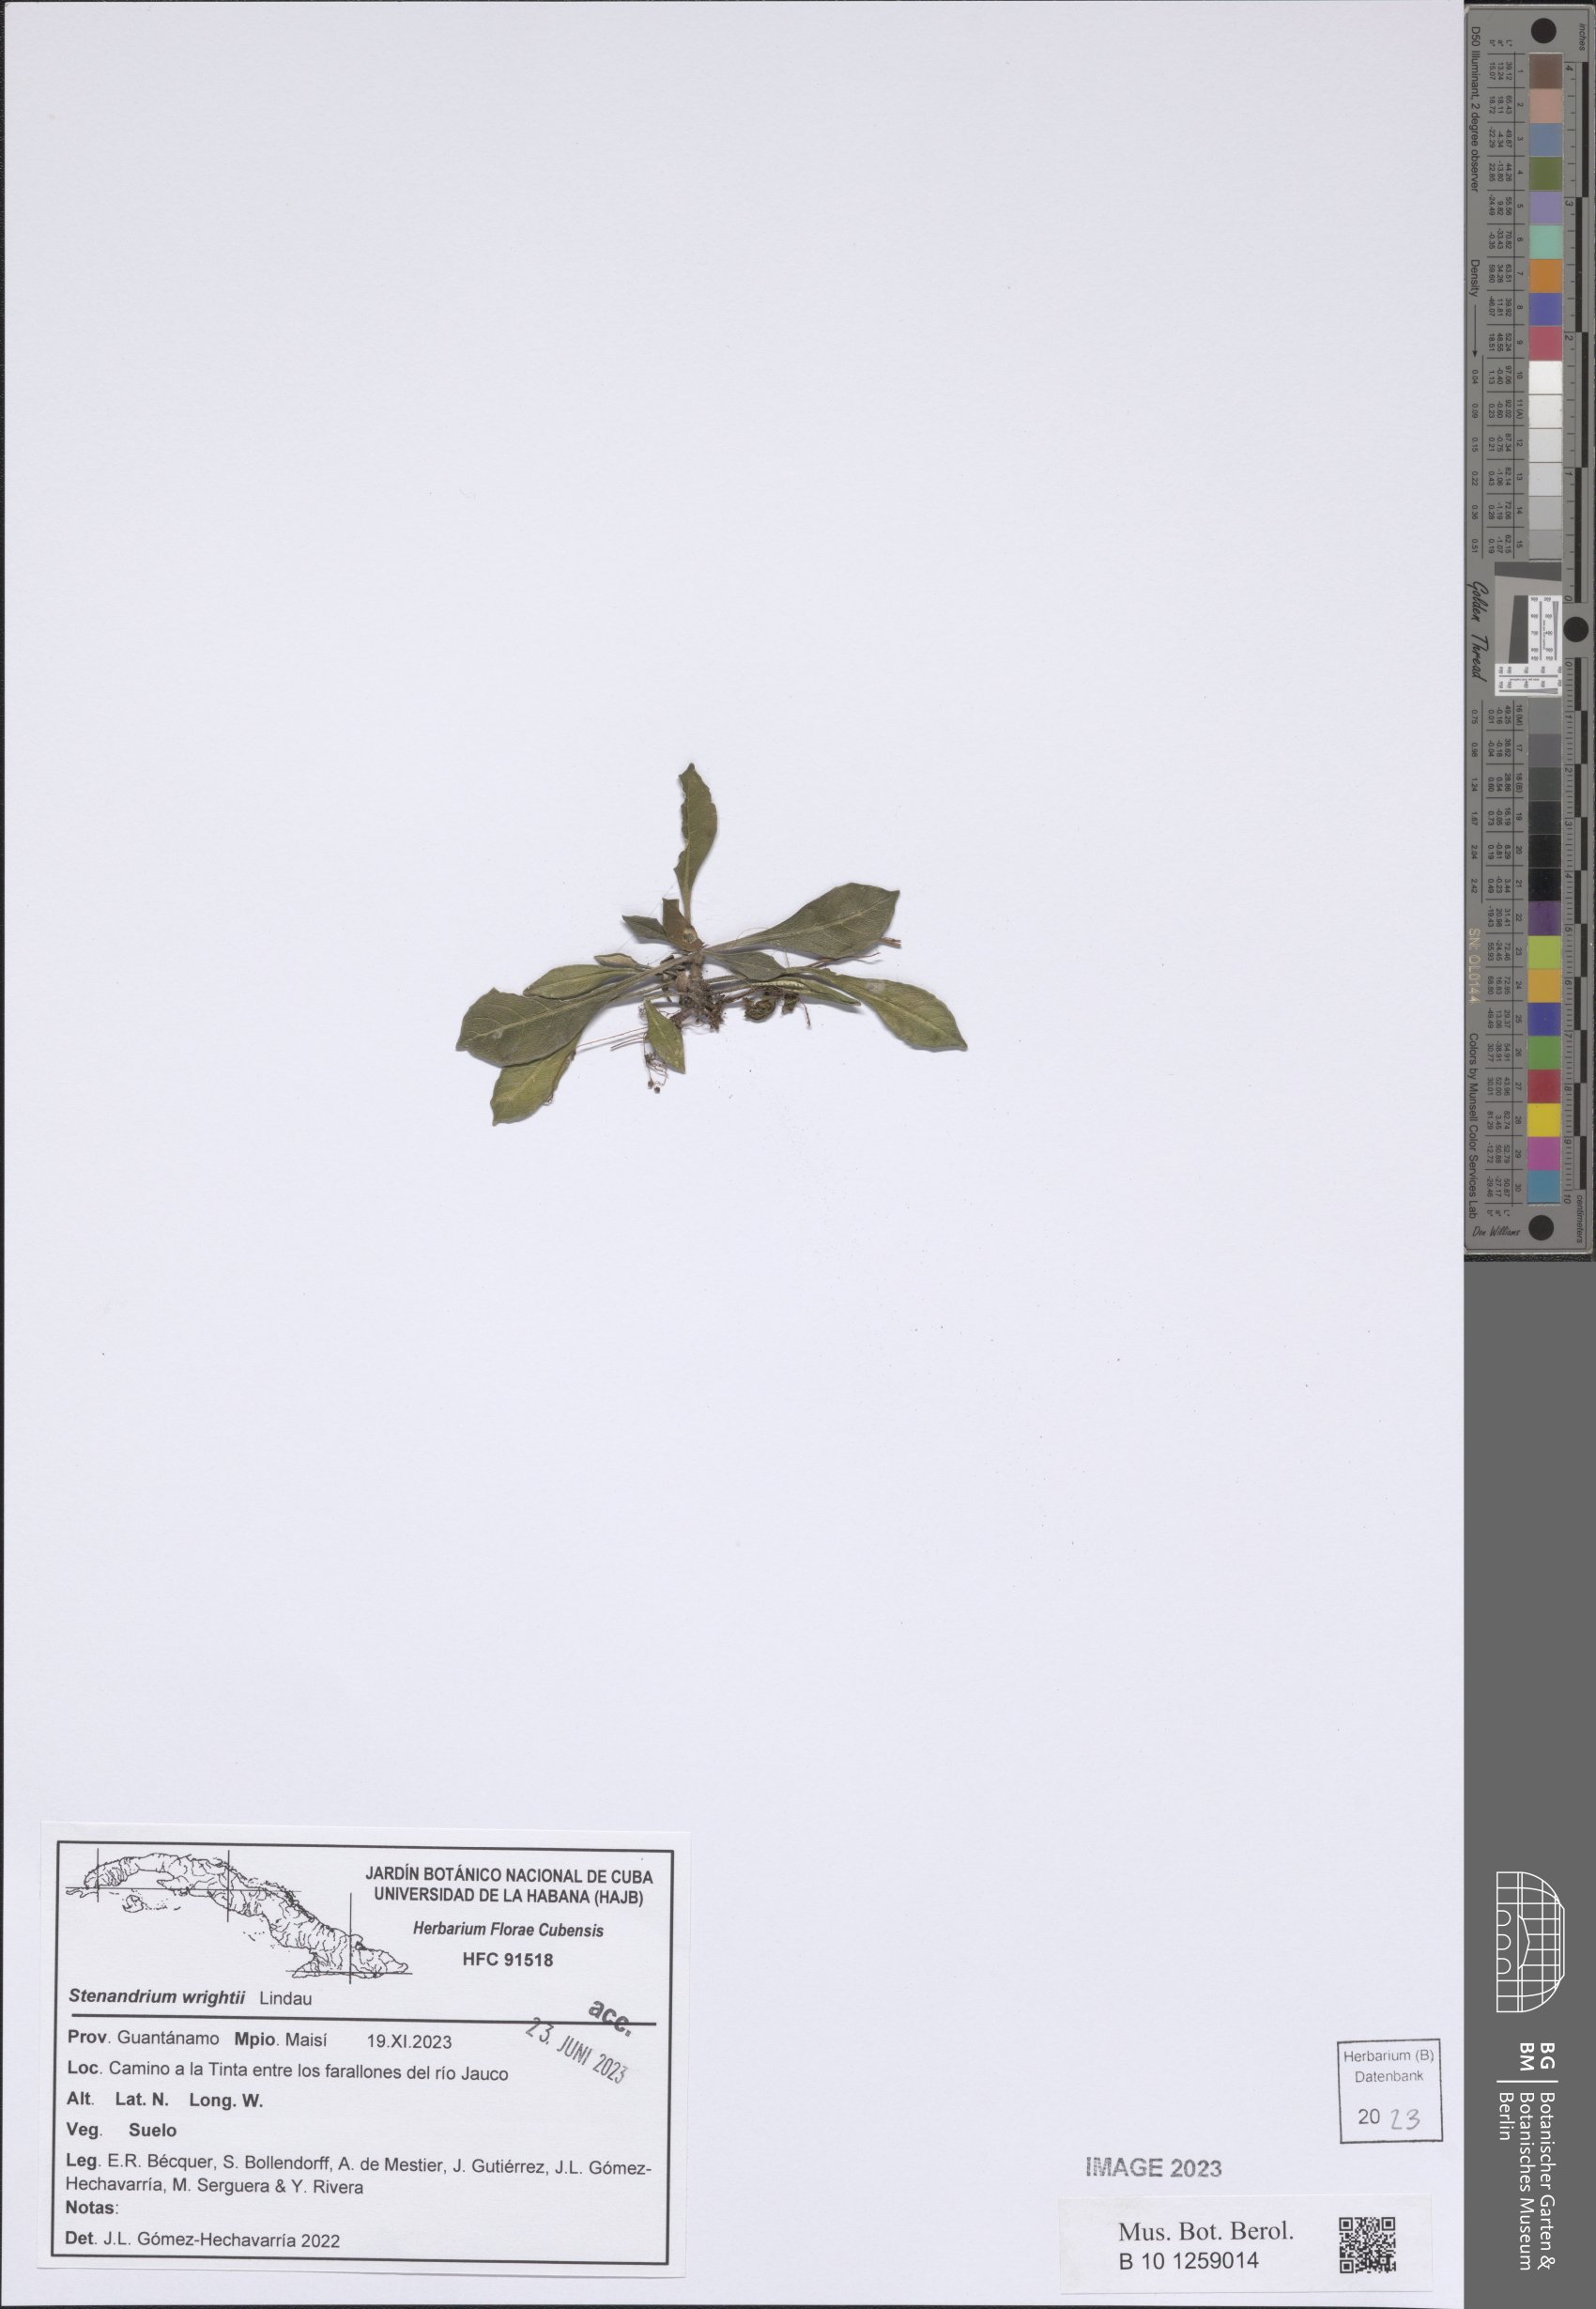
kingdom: Plantae
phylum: Tracheophyta
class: Magnoliopsida
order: Lamiales
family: Acanthaceae
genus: Stenandrium
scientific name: Stenandrium wrightii
